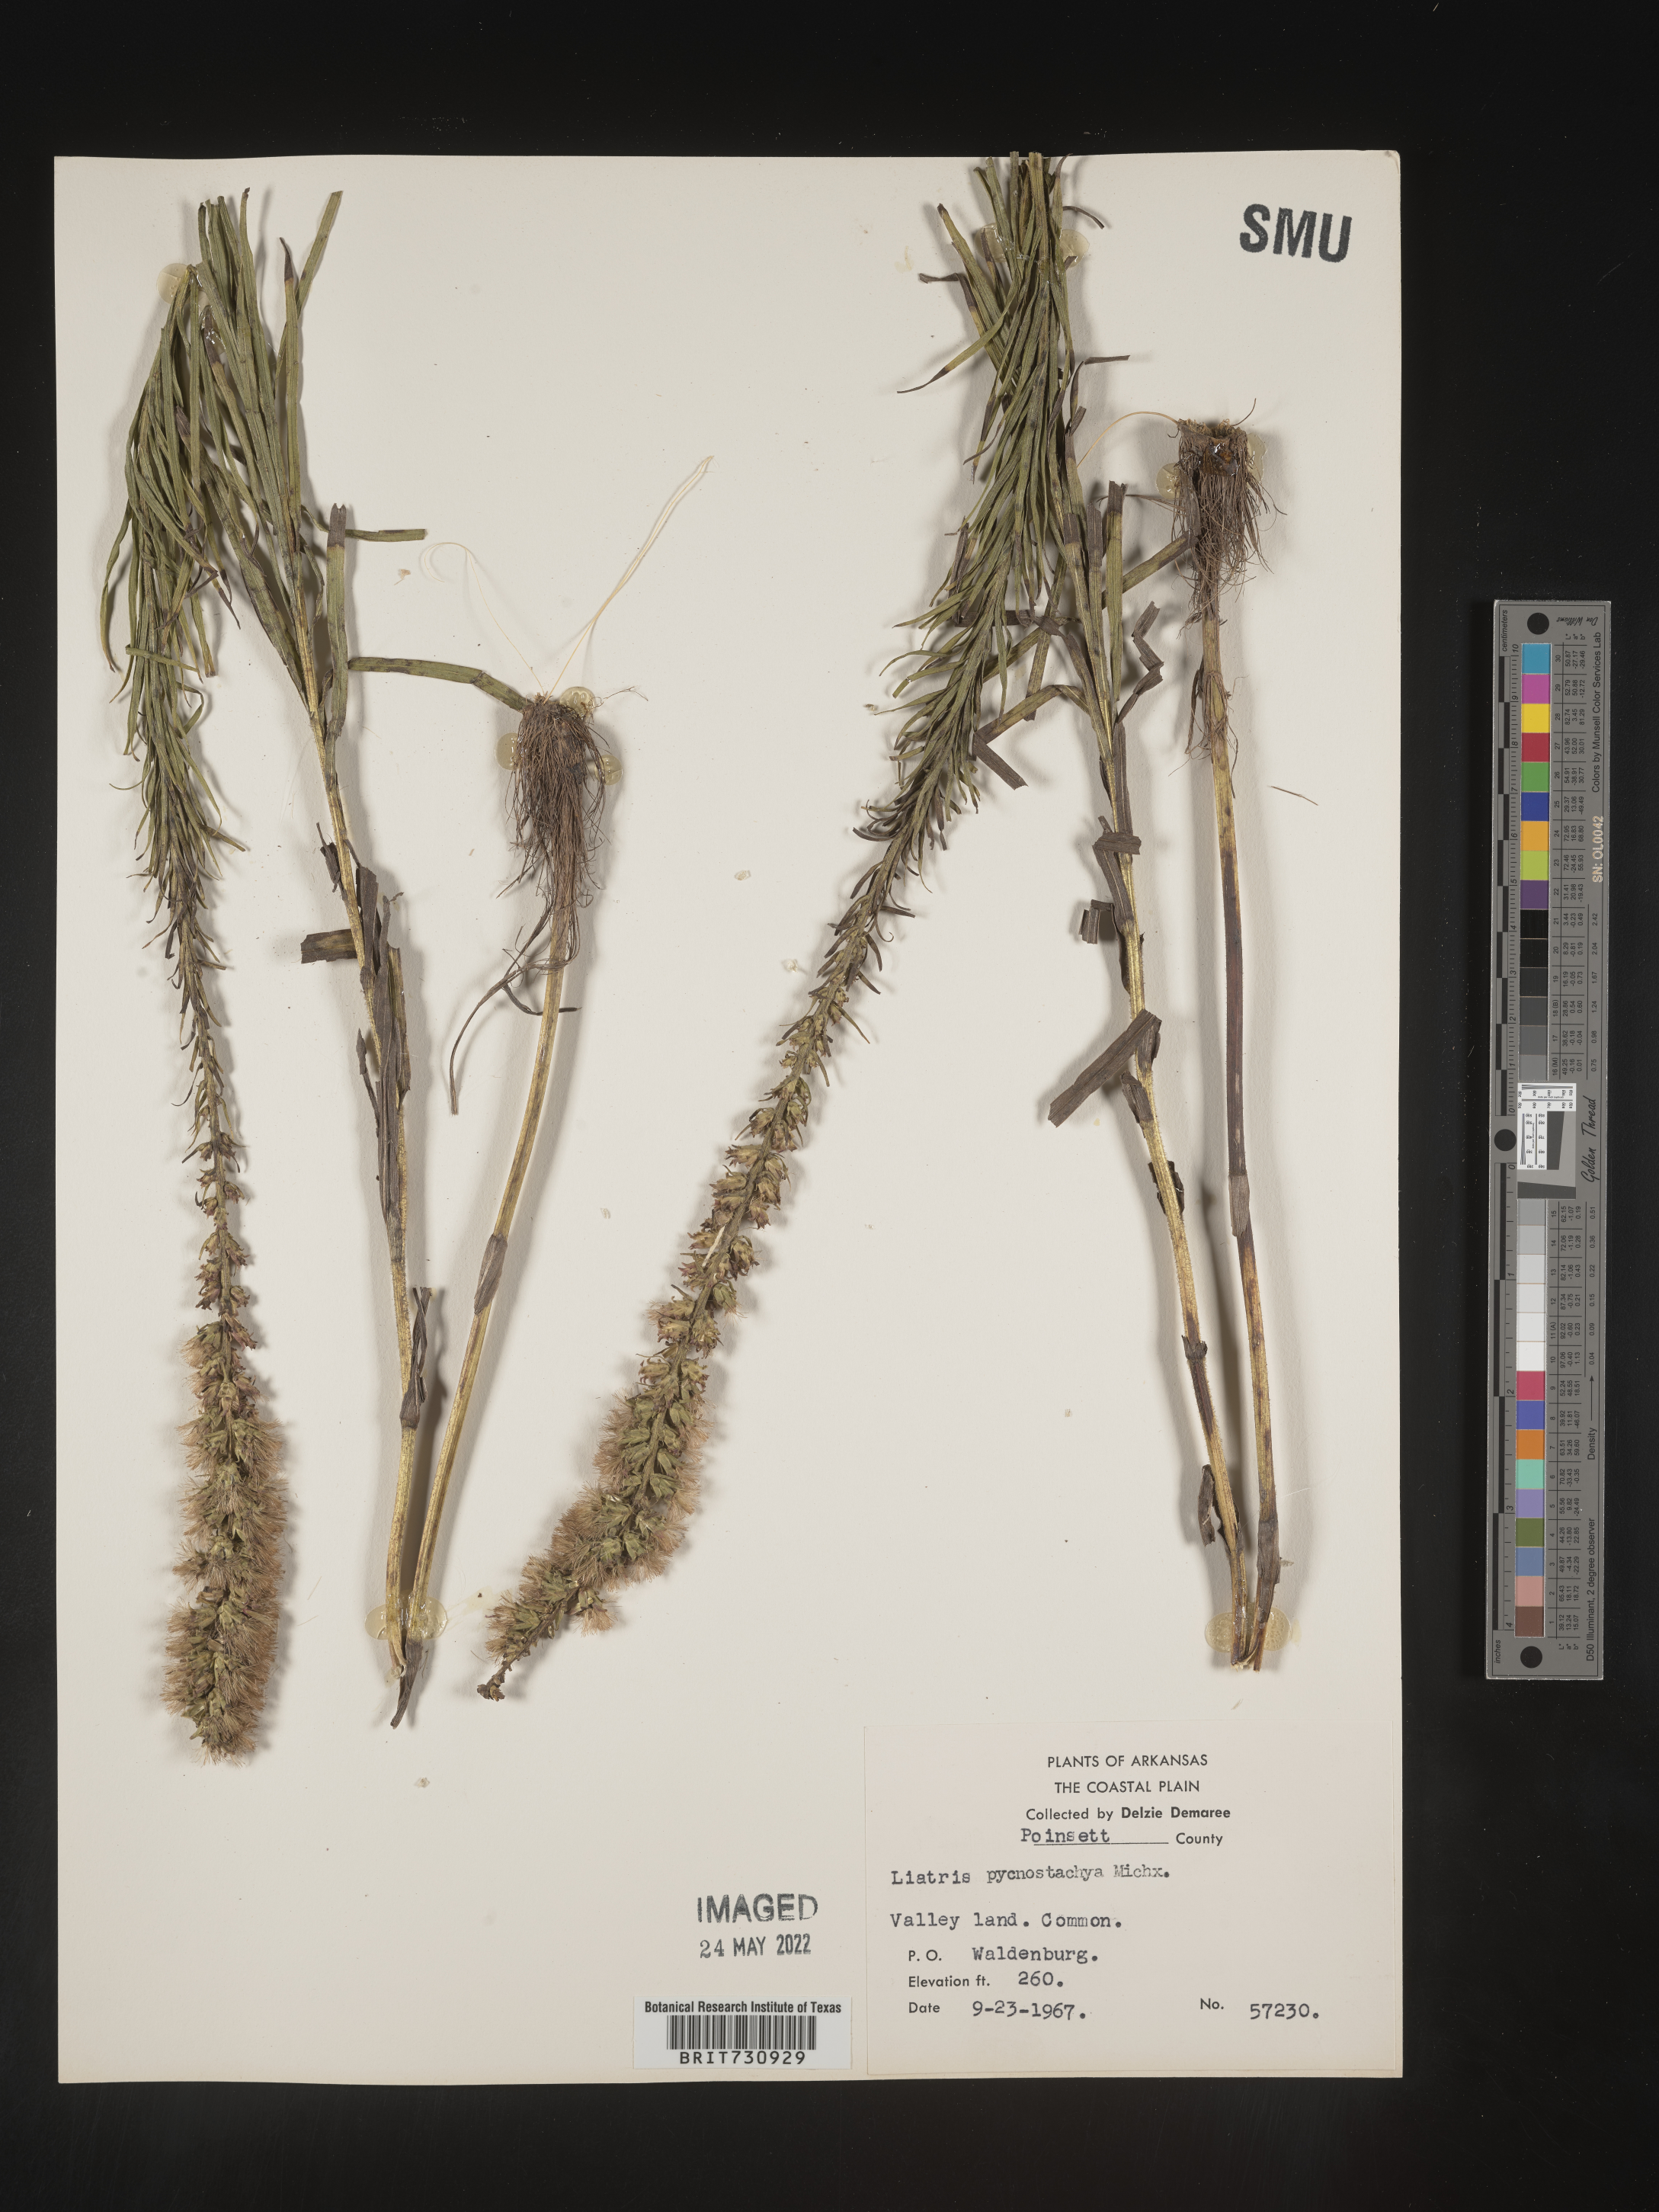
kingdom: Plantae
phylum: Tracheophyta
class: Magnoliopsida
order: Asterales
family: Asteraceae
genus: Liatris
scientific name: Liatris pycnostachya
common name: Cattail gayfeather
